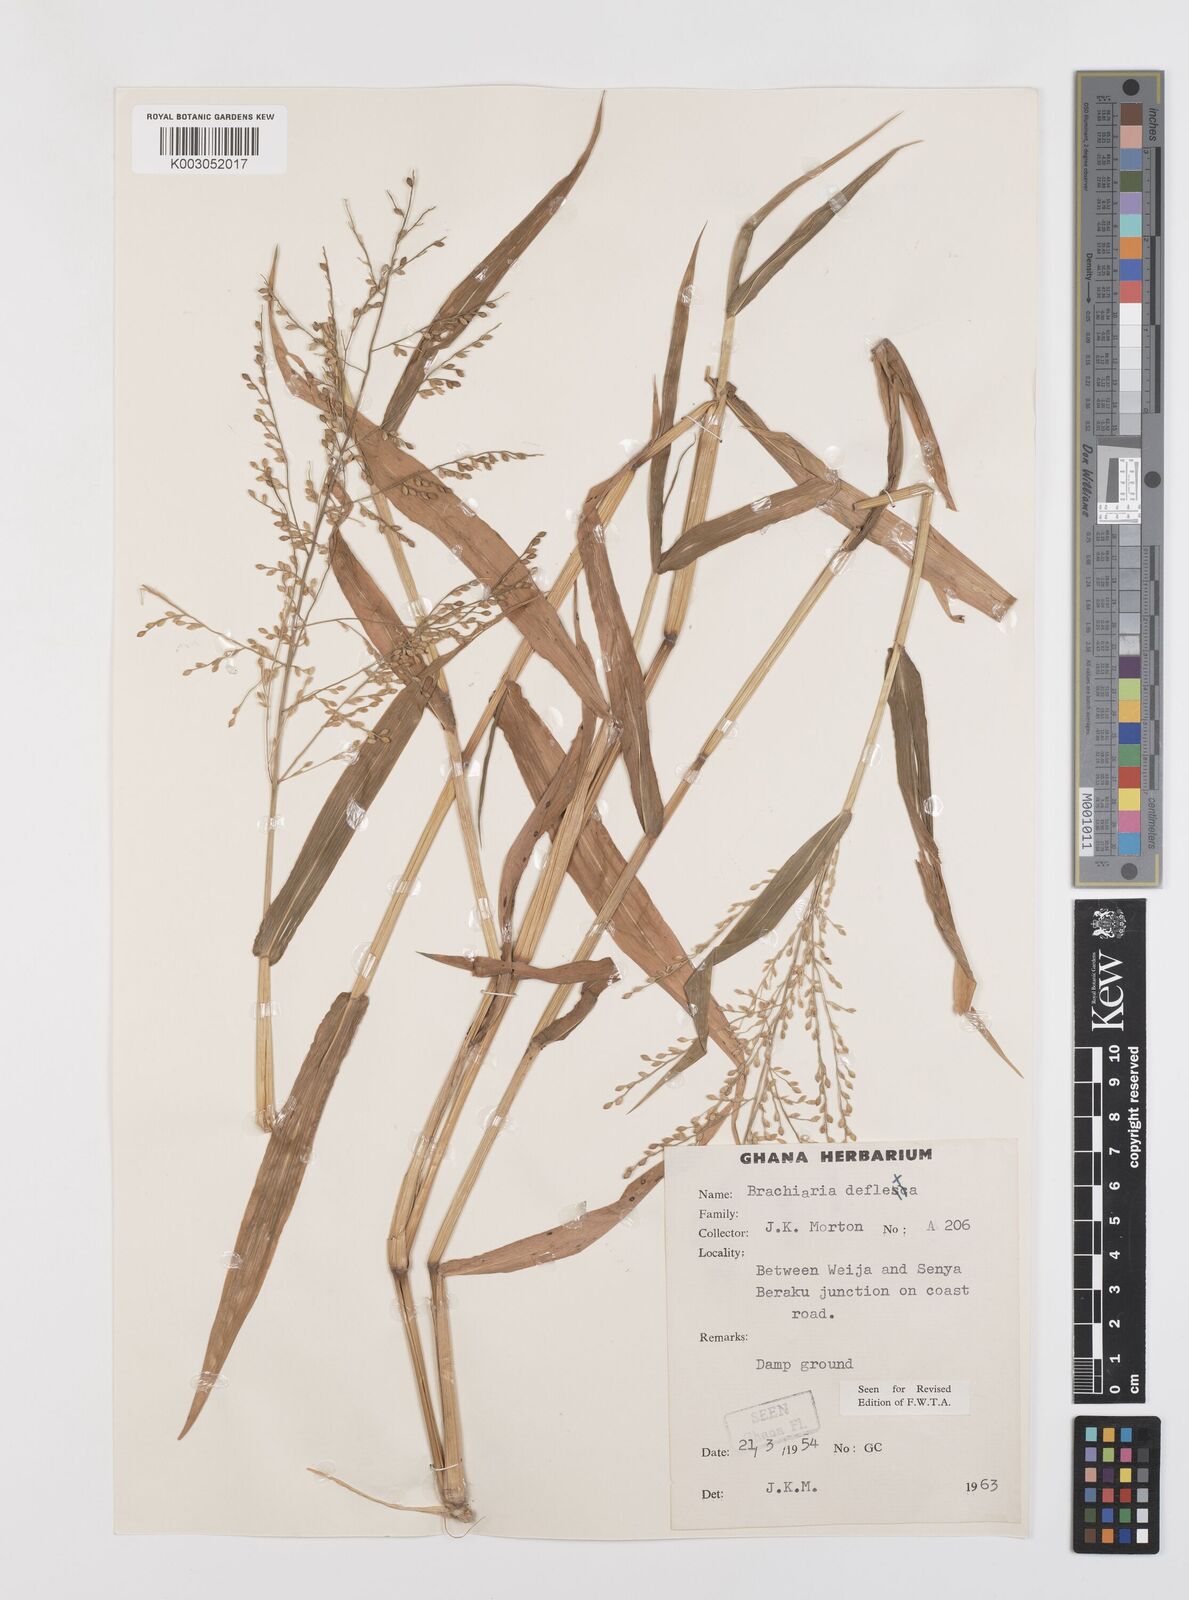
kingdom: Plantae
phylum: Tracheophyta
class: Liliopsida
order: Poales
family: Poaceae
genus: Urochloa
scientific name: Urochloa deflexa
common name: Guinea millet
